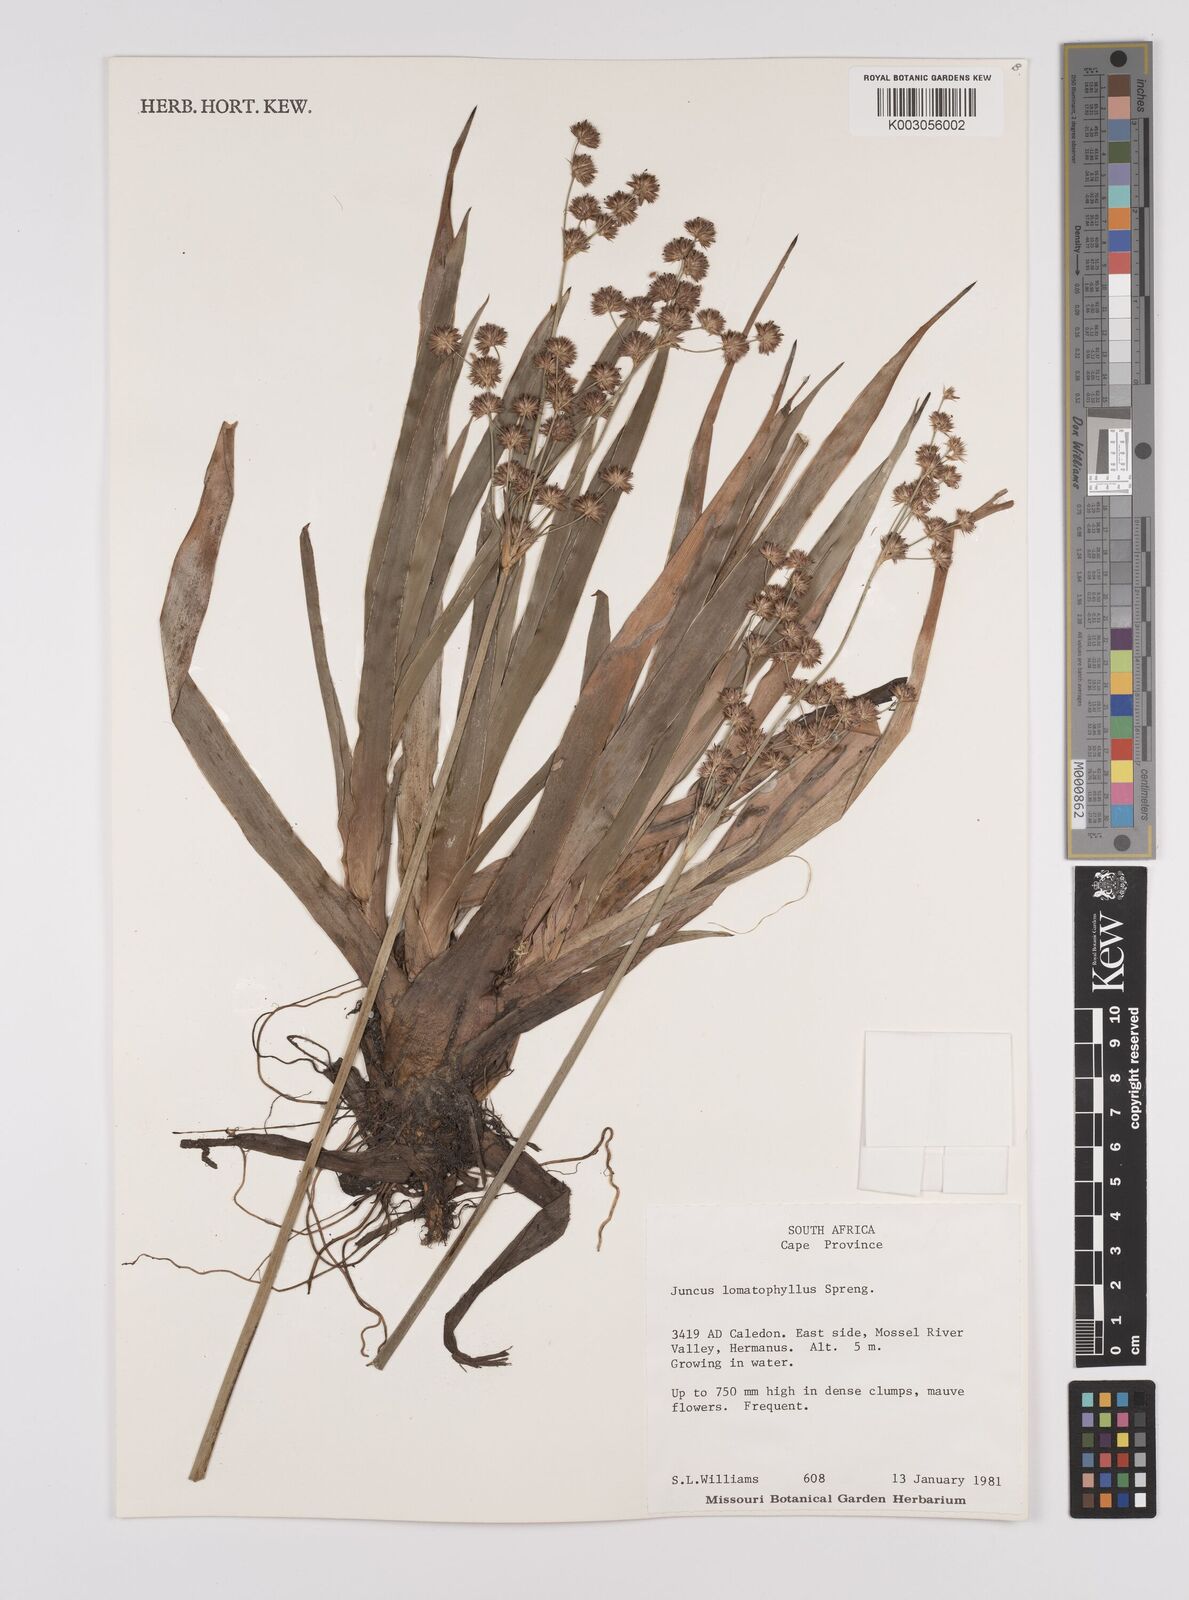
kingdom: Plantae
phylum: Tracheophyta
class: Liliopsida
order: Poales
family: Juncaceae
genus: Juncus
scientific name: Juncus lomatophyllus
